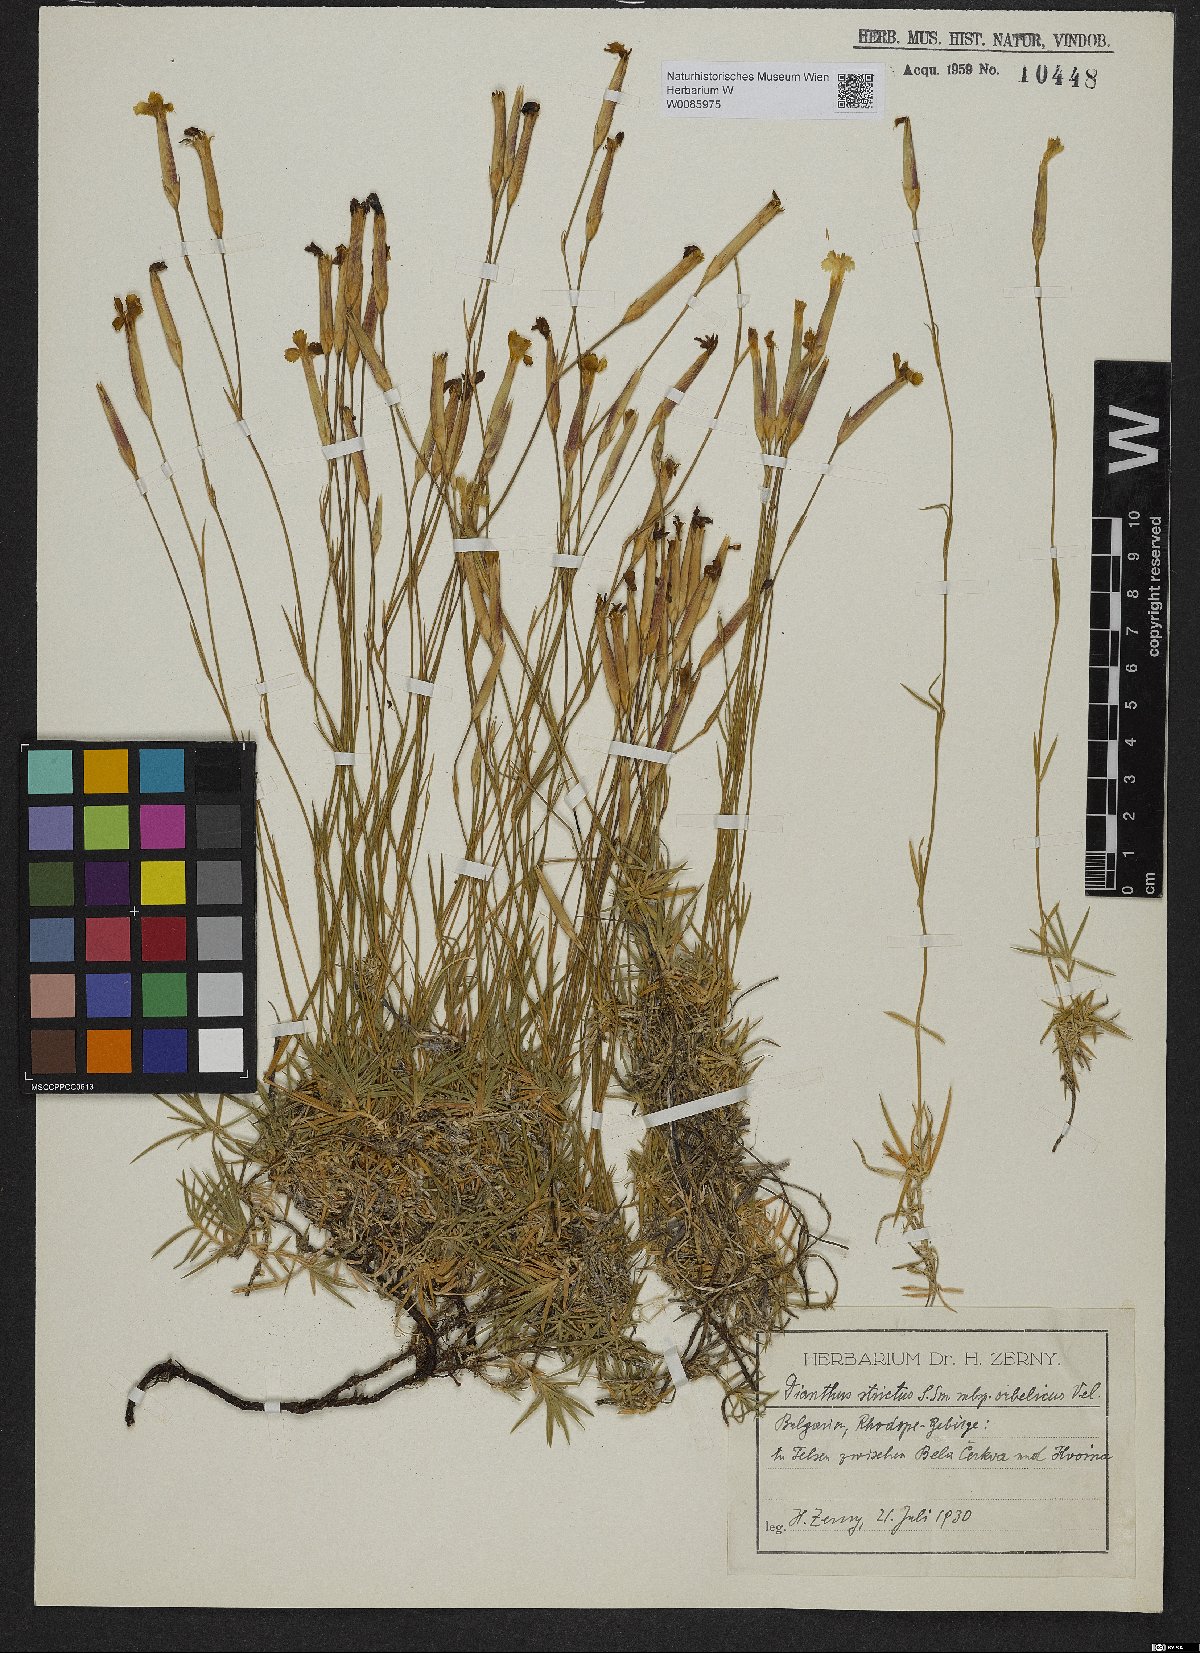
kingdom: Plantae
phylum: Tracheophyta
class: Magnoliopsida
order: Caryophyllales
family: Caryophyllaceae
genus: Dianthus
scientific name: Dianthus petraeus
